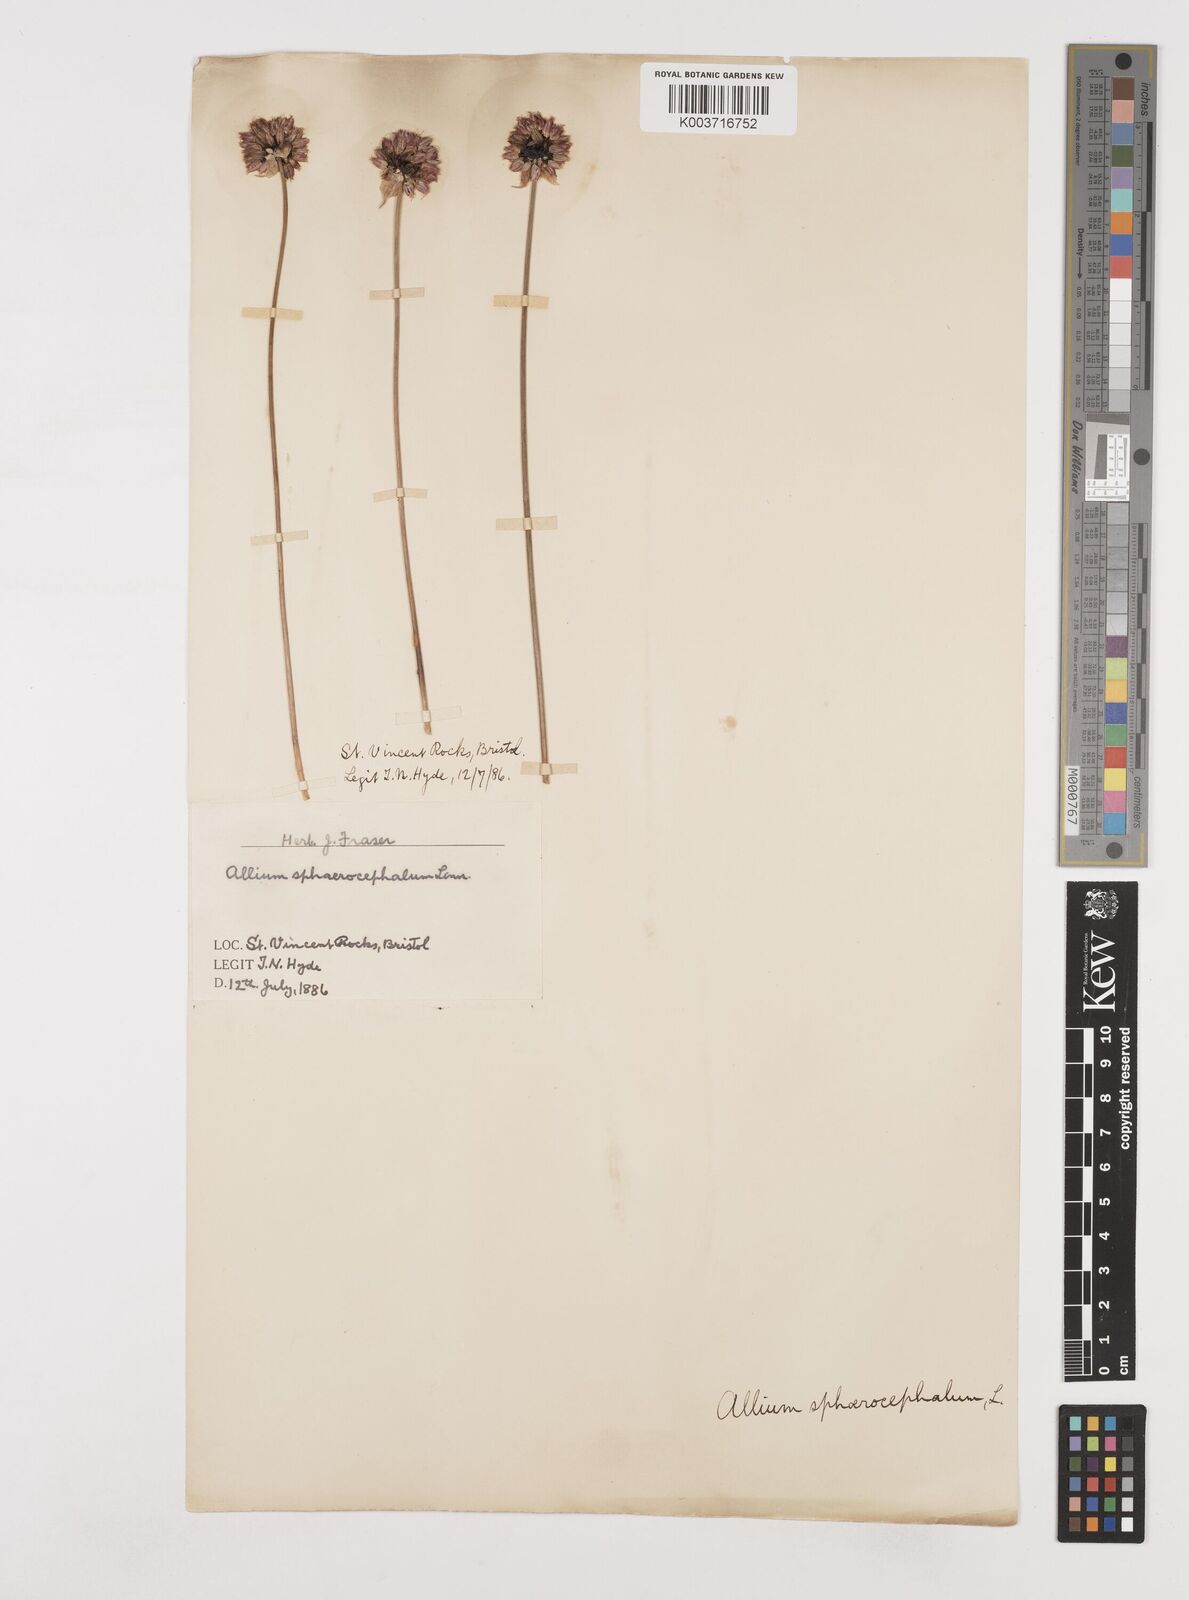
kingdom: Plantae
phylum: Tracheophyta
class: Liliopsida
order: Asparagales
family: Amaryllidaceae
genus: Allium
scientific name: Allium sphaerocephalon
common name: Round-headed leek
